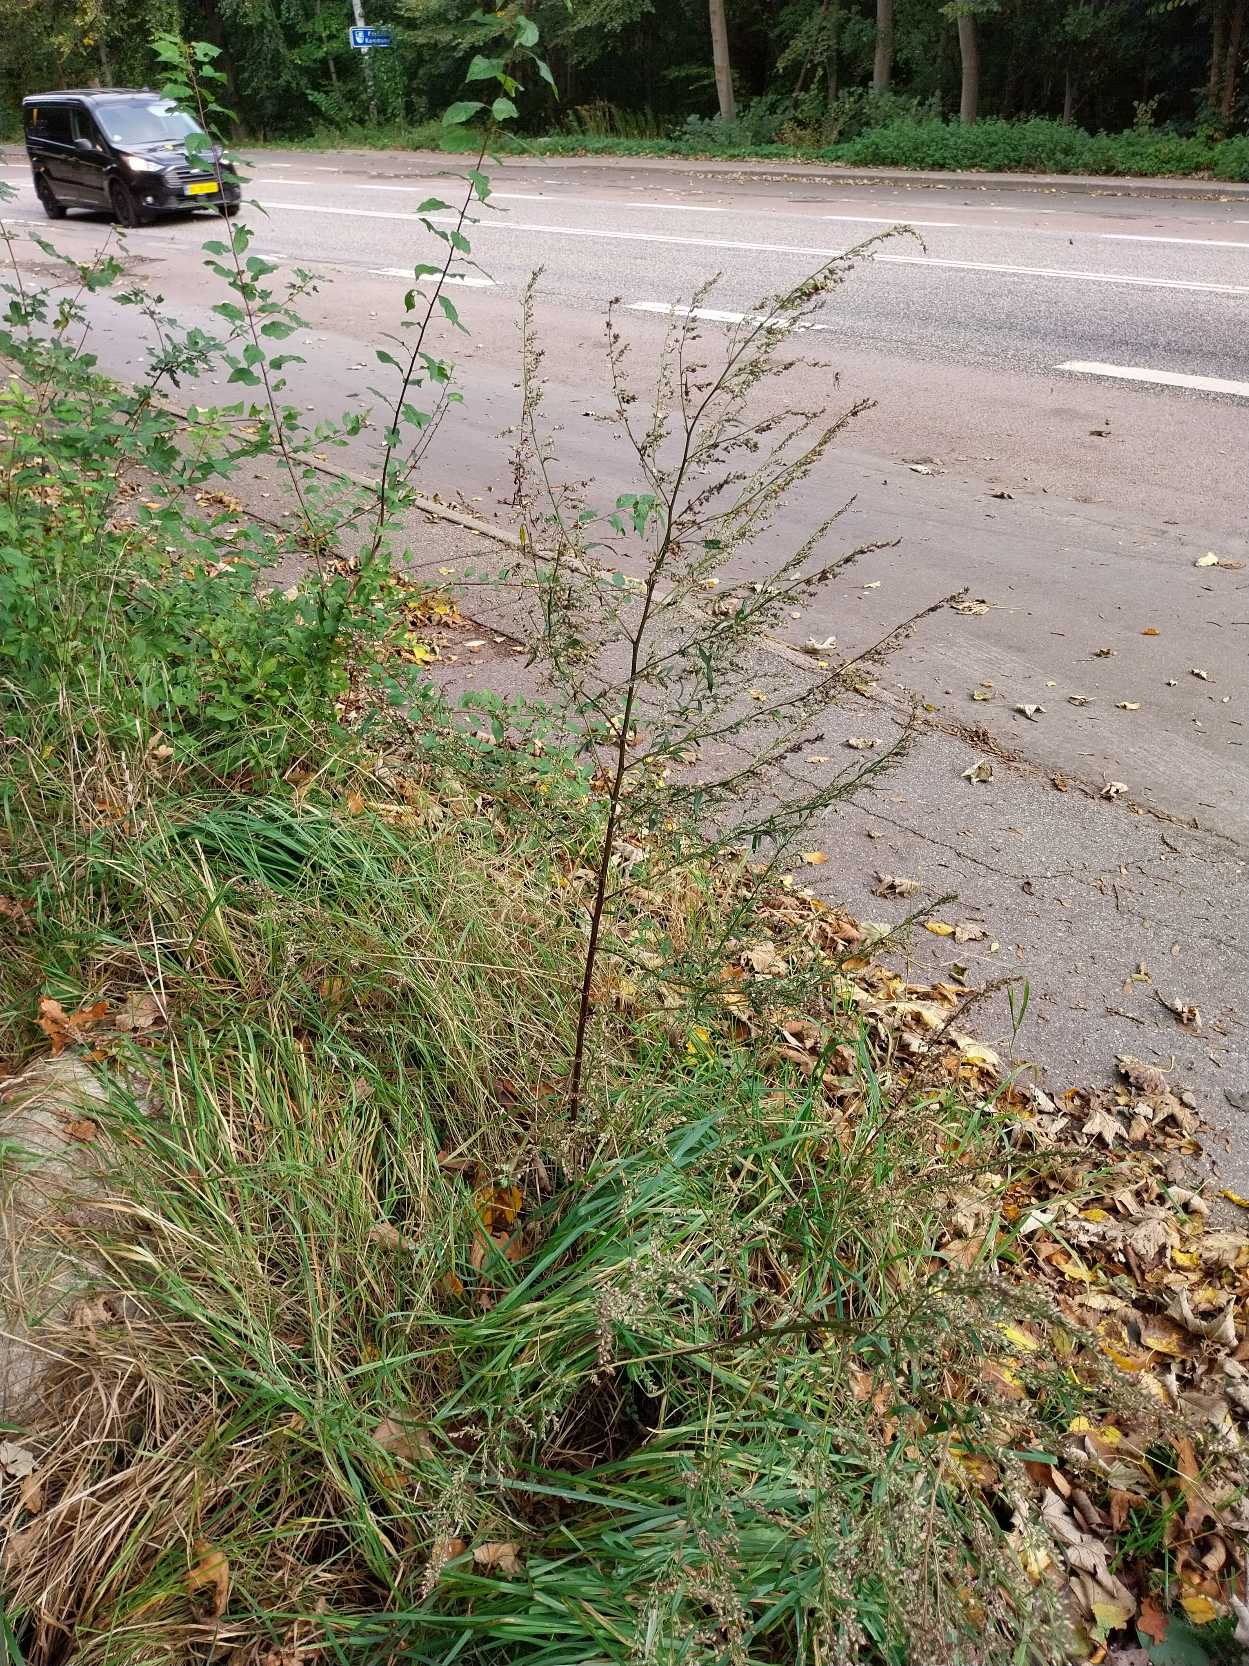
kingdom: Plantae
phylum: Tracheophyta
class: Magnoliopsida
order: Asterales
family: Asteraceae
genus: Artemisia
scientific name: Artemisia vulgaris
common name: Grå-bynke
